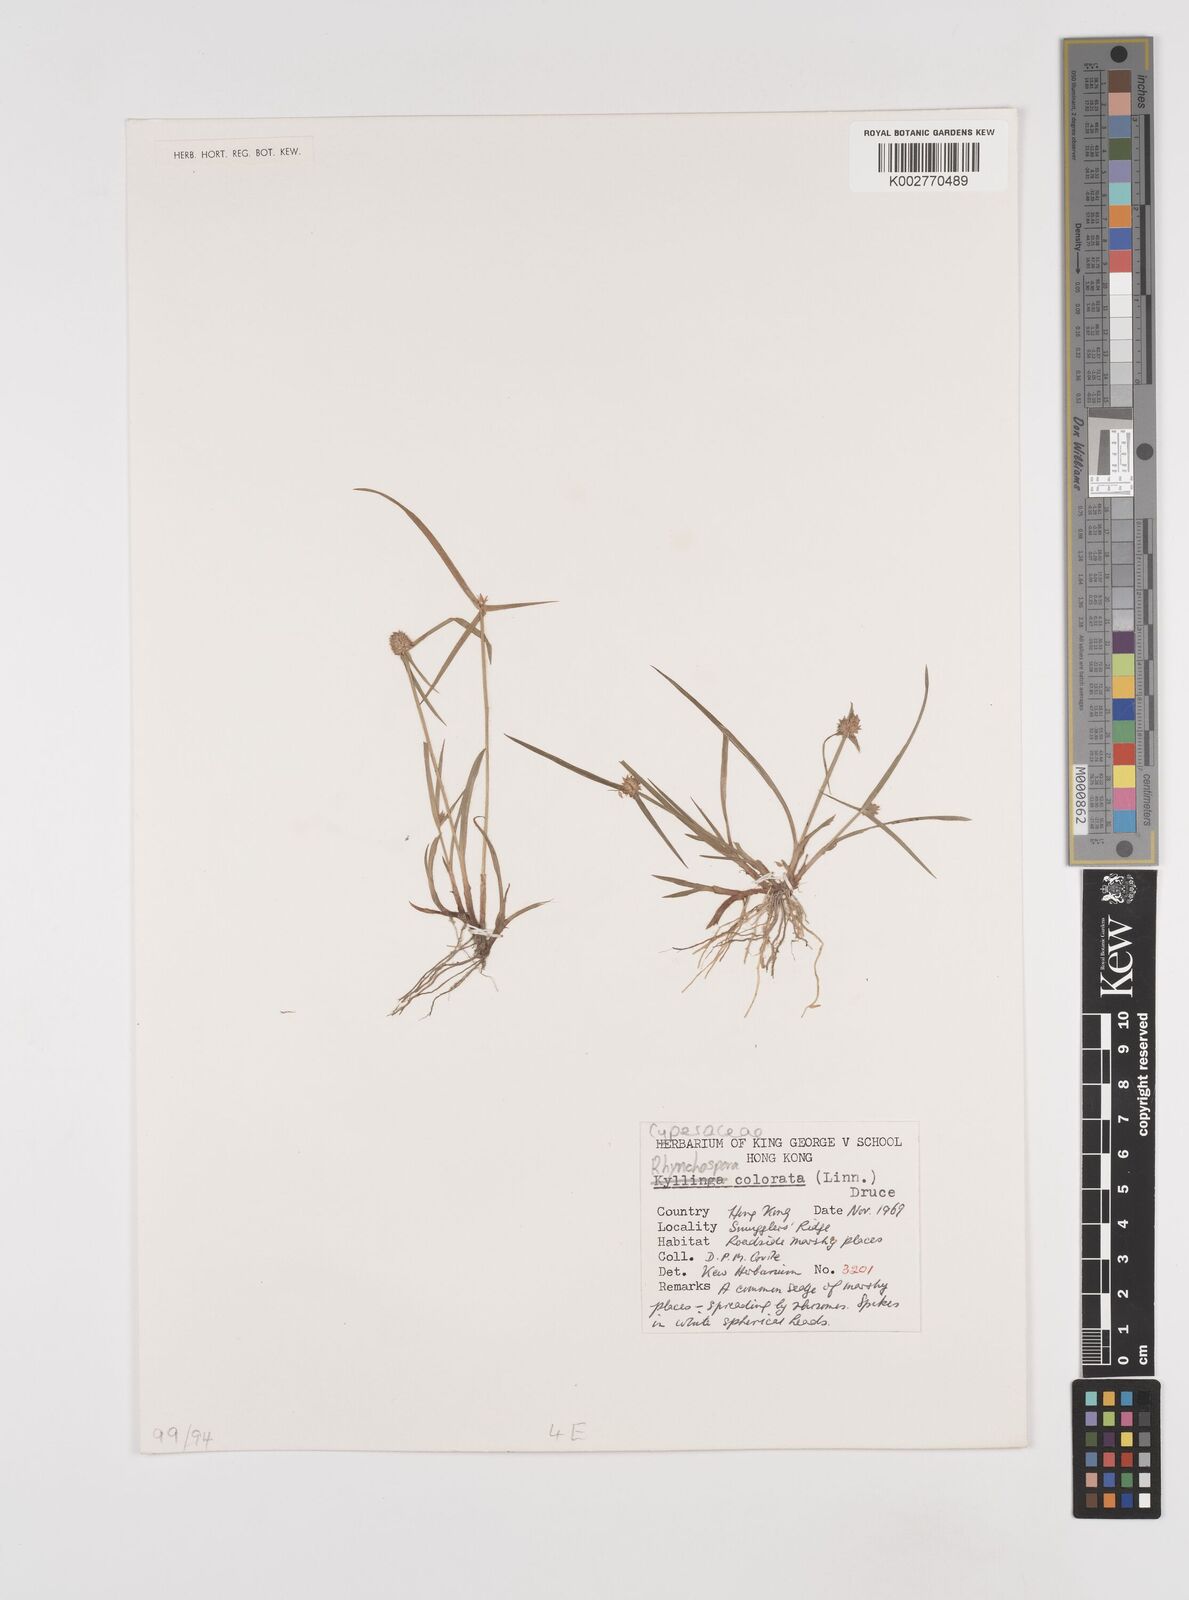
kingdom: Plantae
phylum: Tracheophyta
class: Liliopsida
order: Poales
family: Cyperaceae
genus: Rhynchospora
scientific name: Rhynchospora
